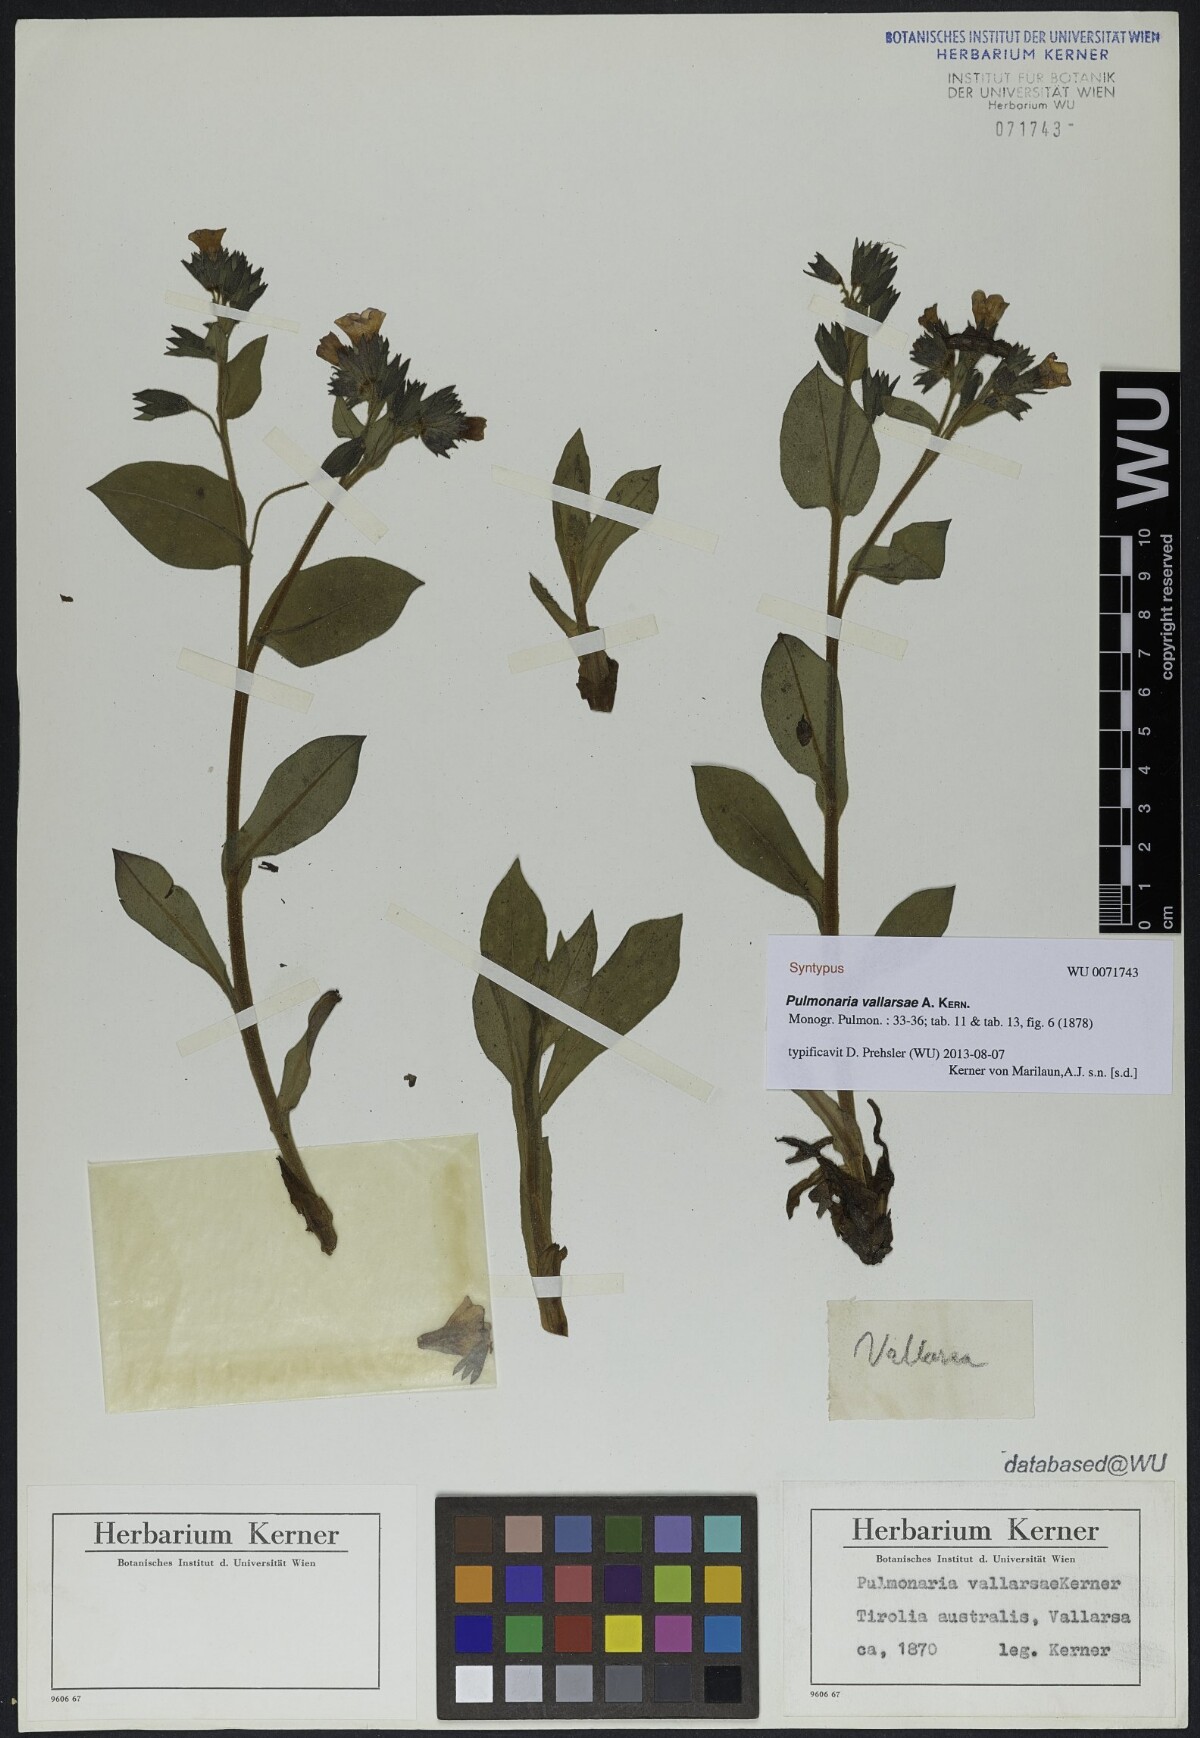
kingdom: Plantae
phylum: Tracheophyta
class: Magnoliopsida
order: Boraginales
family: Boraginaceae
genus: Pulmonaria
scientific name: Pulmonaria hirta
